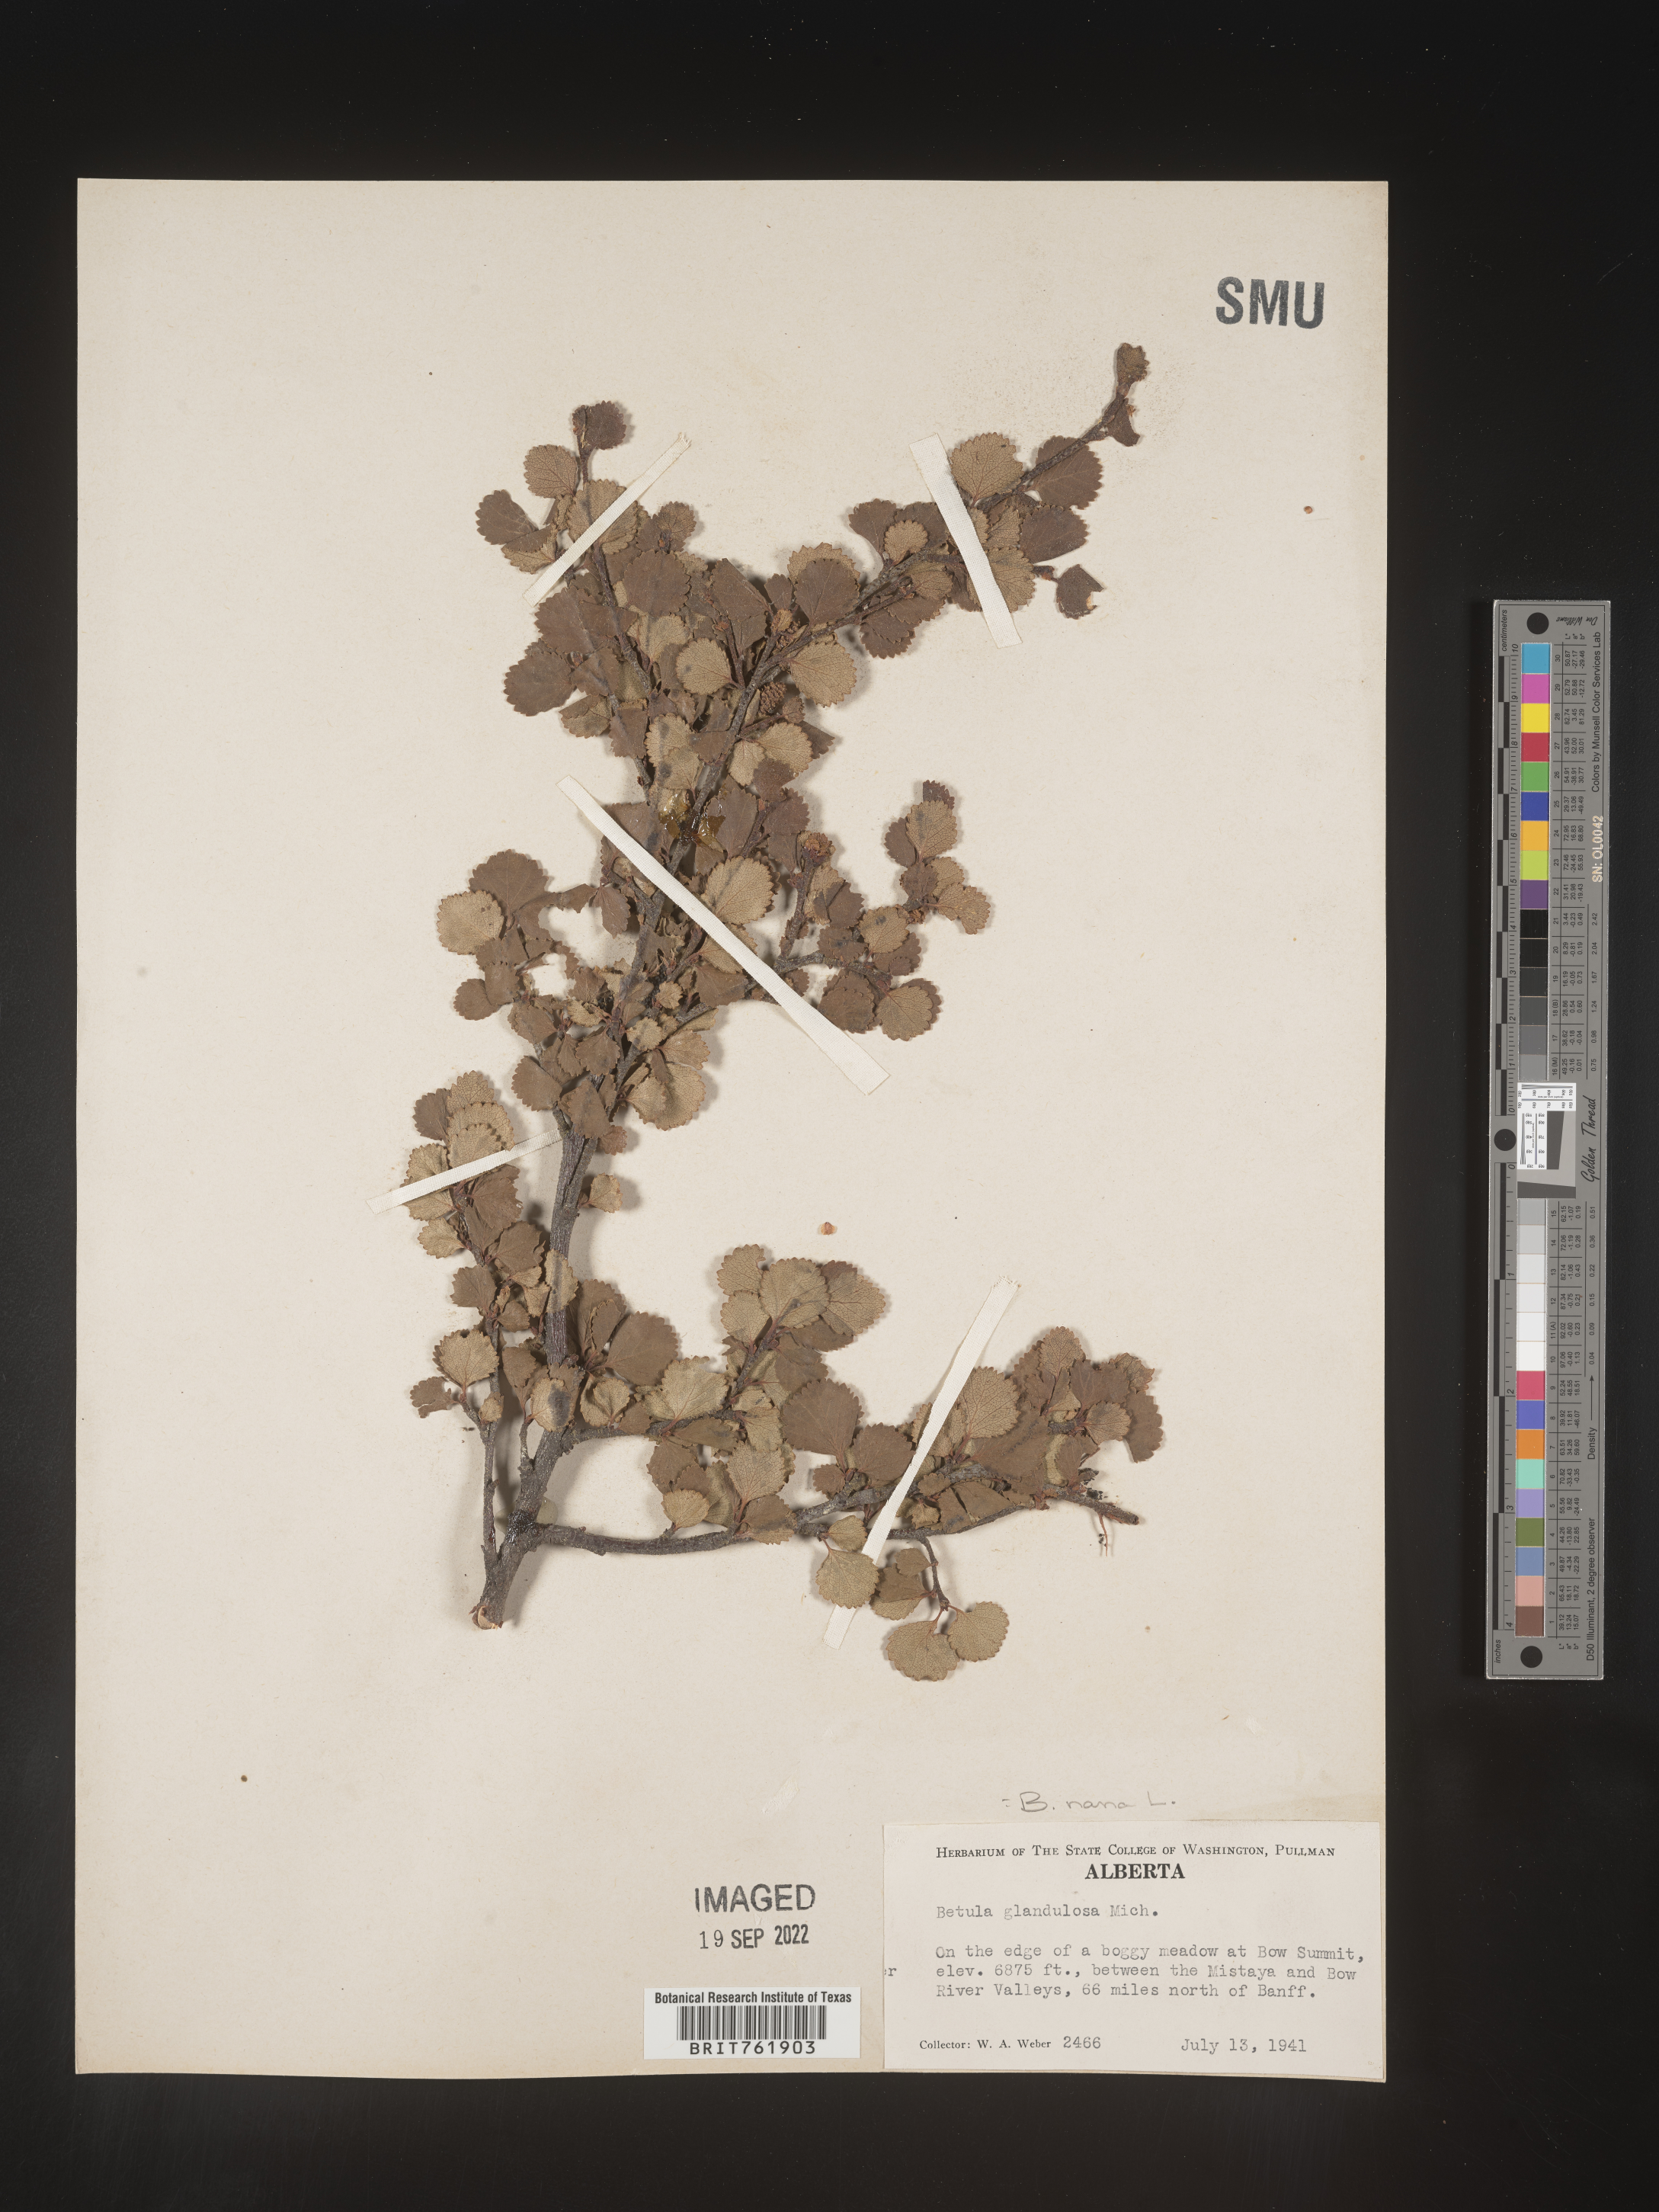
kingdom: Plantae
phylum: Tracheophyta
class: Magnoliopsida
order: Fagales
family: Betulaceae
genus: Betula
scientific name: Betula nana
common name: Arctic dwarf birch
